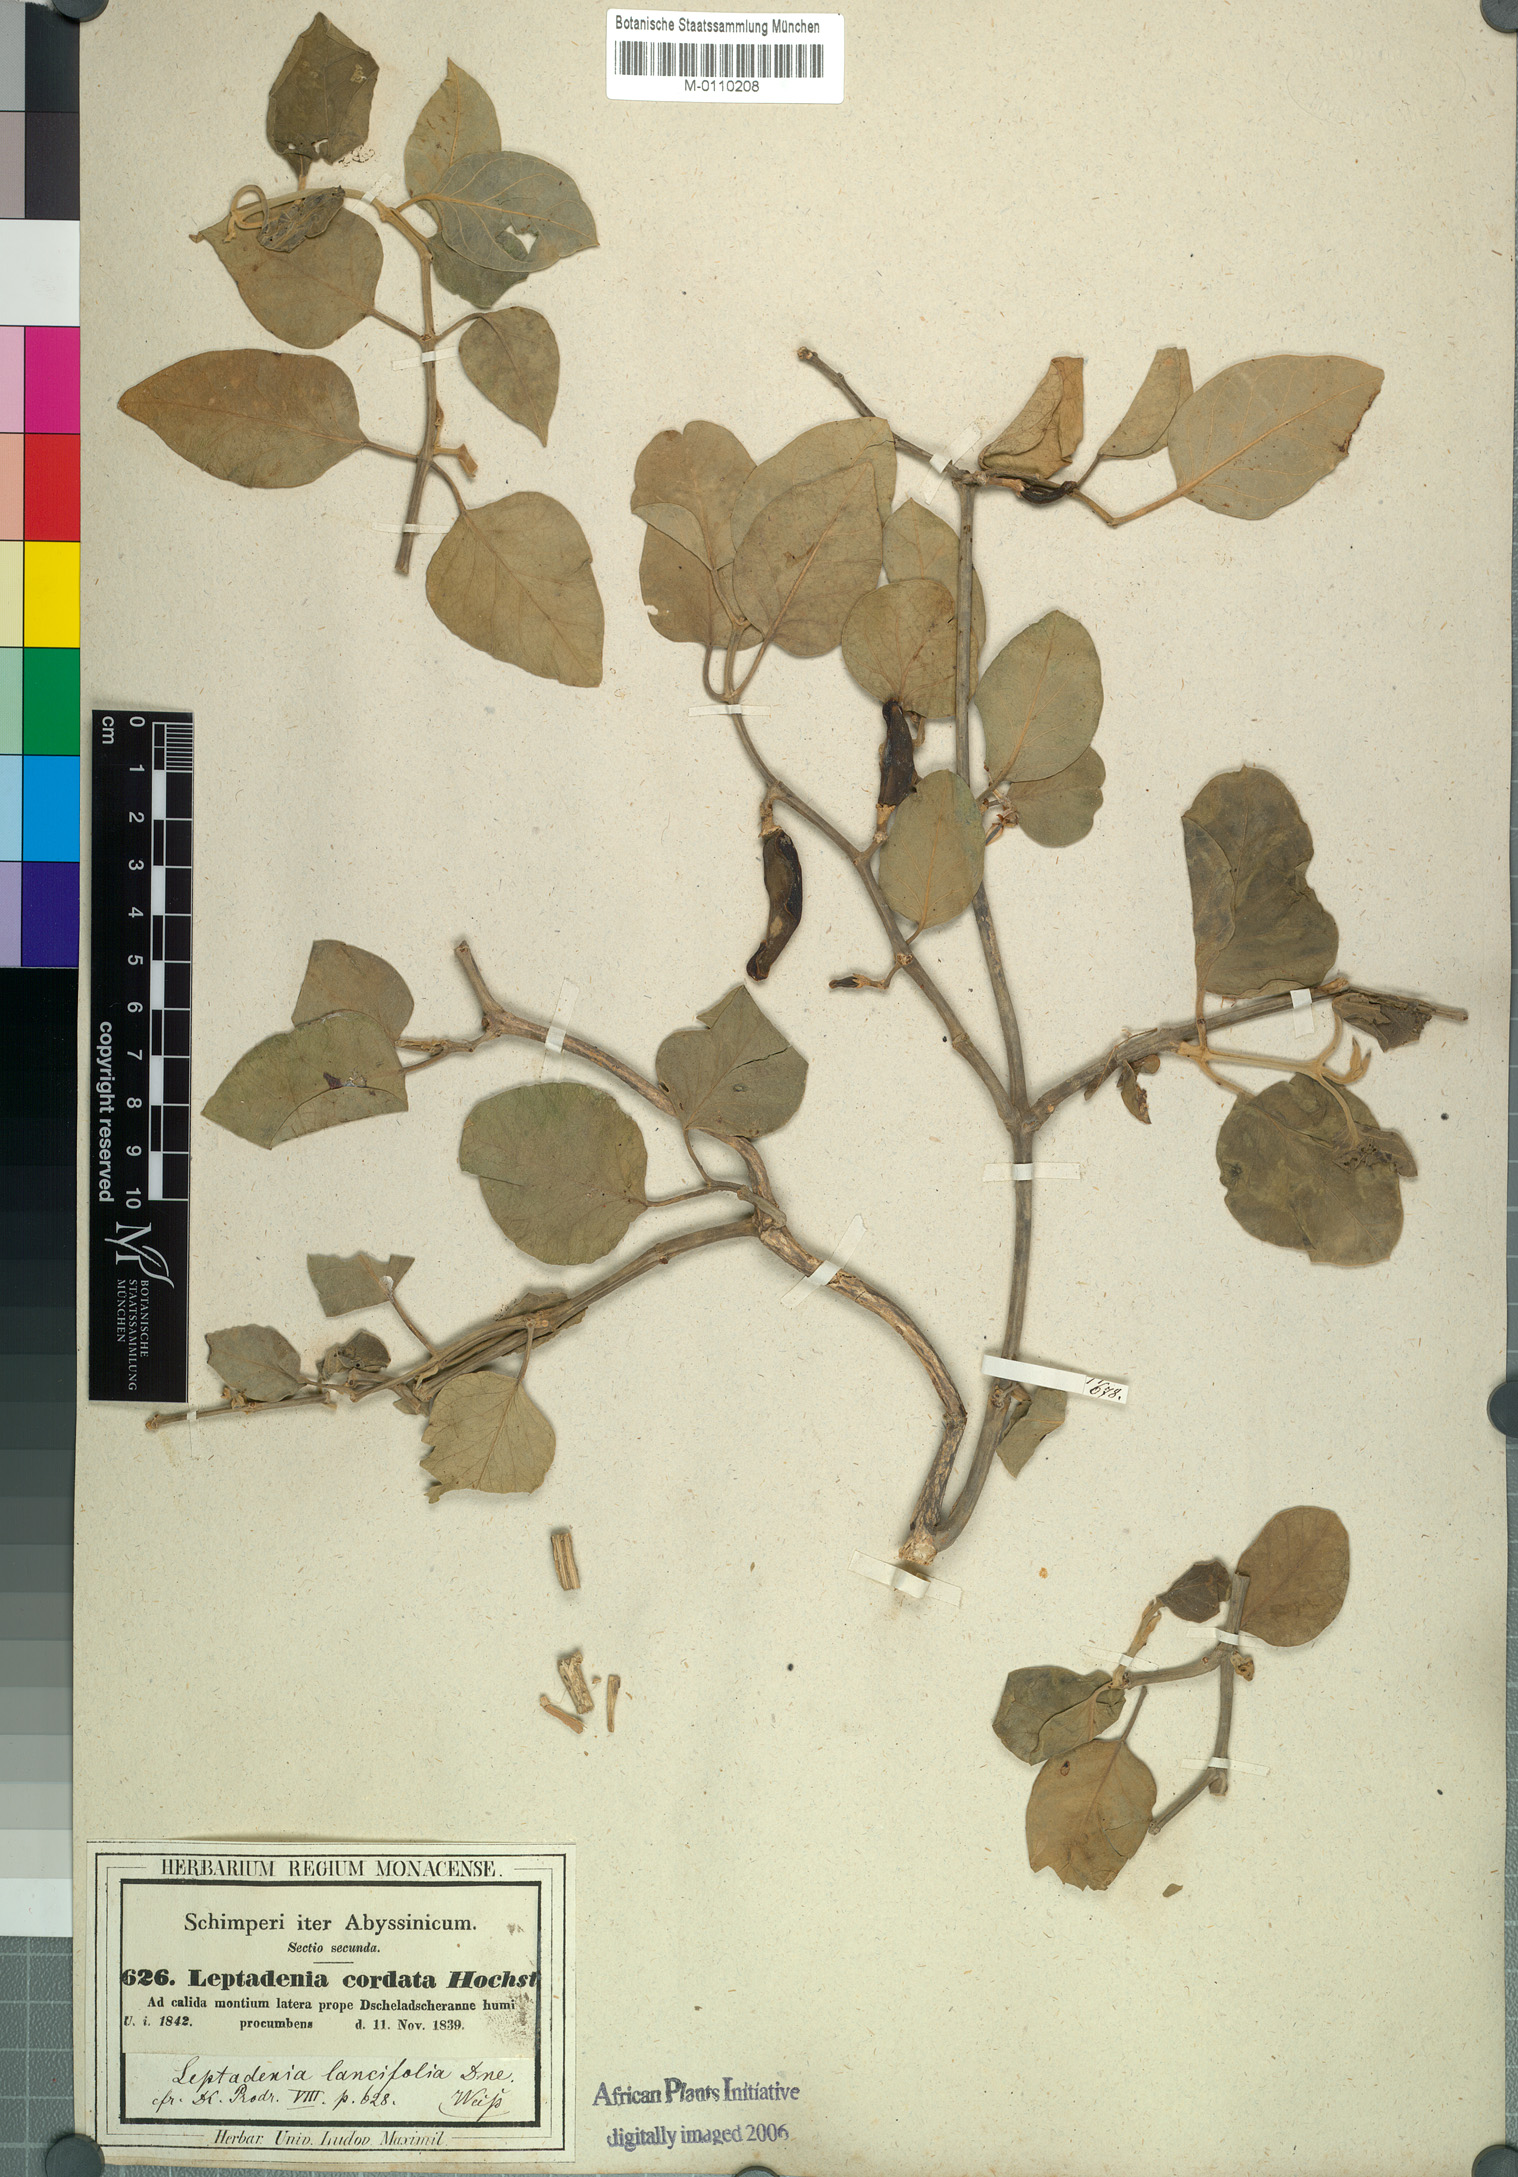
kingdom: Plantae
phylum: Tracheophyta
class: Magnoliopsida
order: Gentianales
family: Apocynaceae
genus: Leptadenia
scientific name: Leptadenia lanceolata
